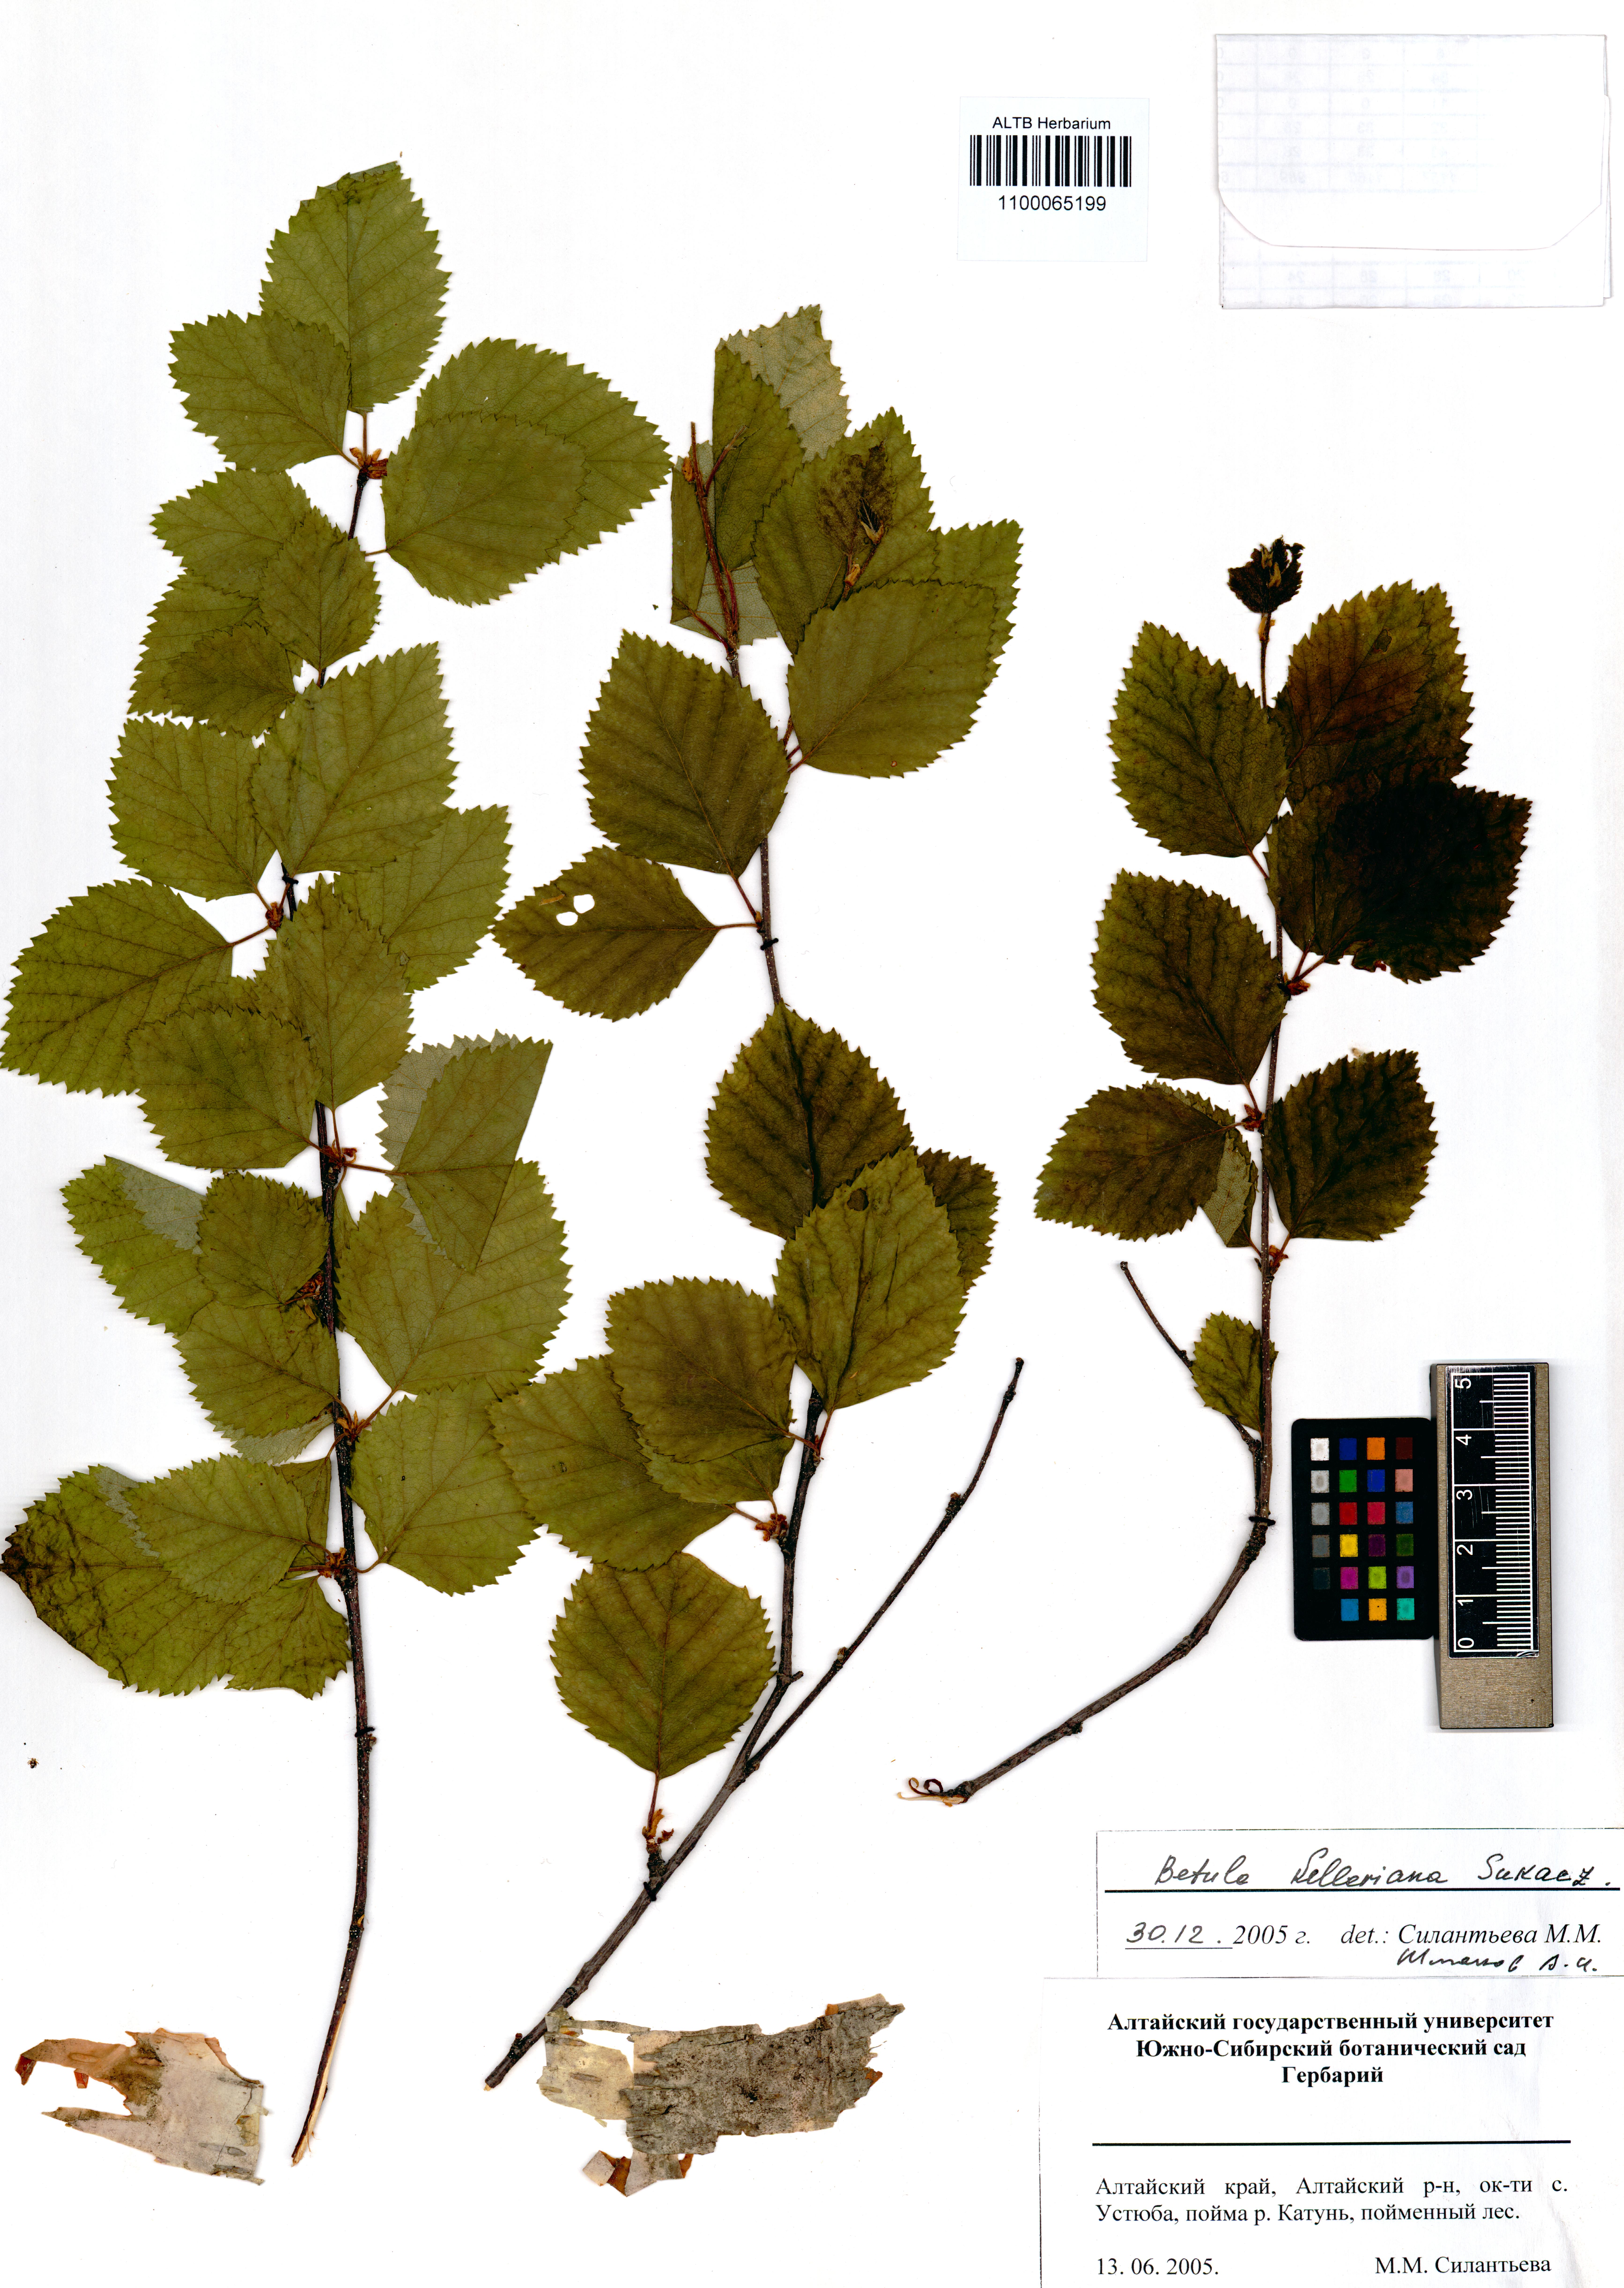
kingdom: Plantae
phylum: Tracheophyta
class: Magnoliopsida
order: Fagales
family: Betulaceae
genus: Betula
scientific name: Betula microphylla
